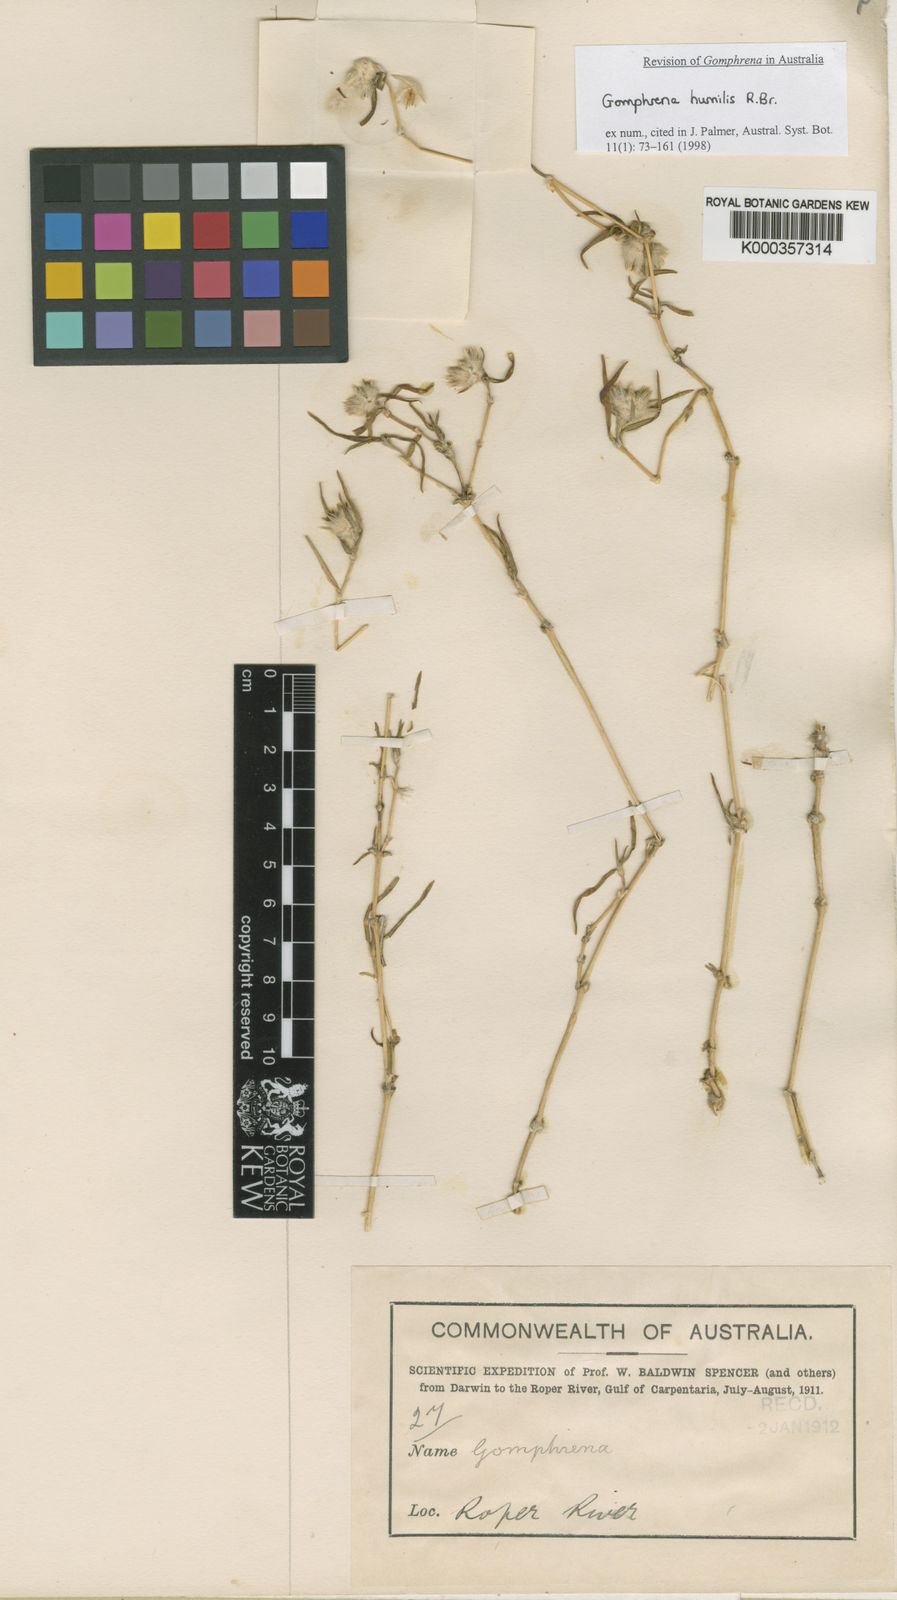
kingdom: Plantae
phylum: Tracheophyta
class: Magnoliopsida
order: Caryophyllales
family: Amaranthaceae
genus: Gomphrena
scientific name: Gomphrena humilis
